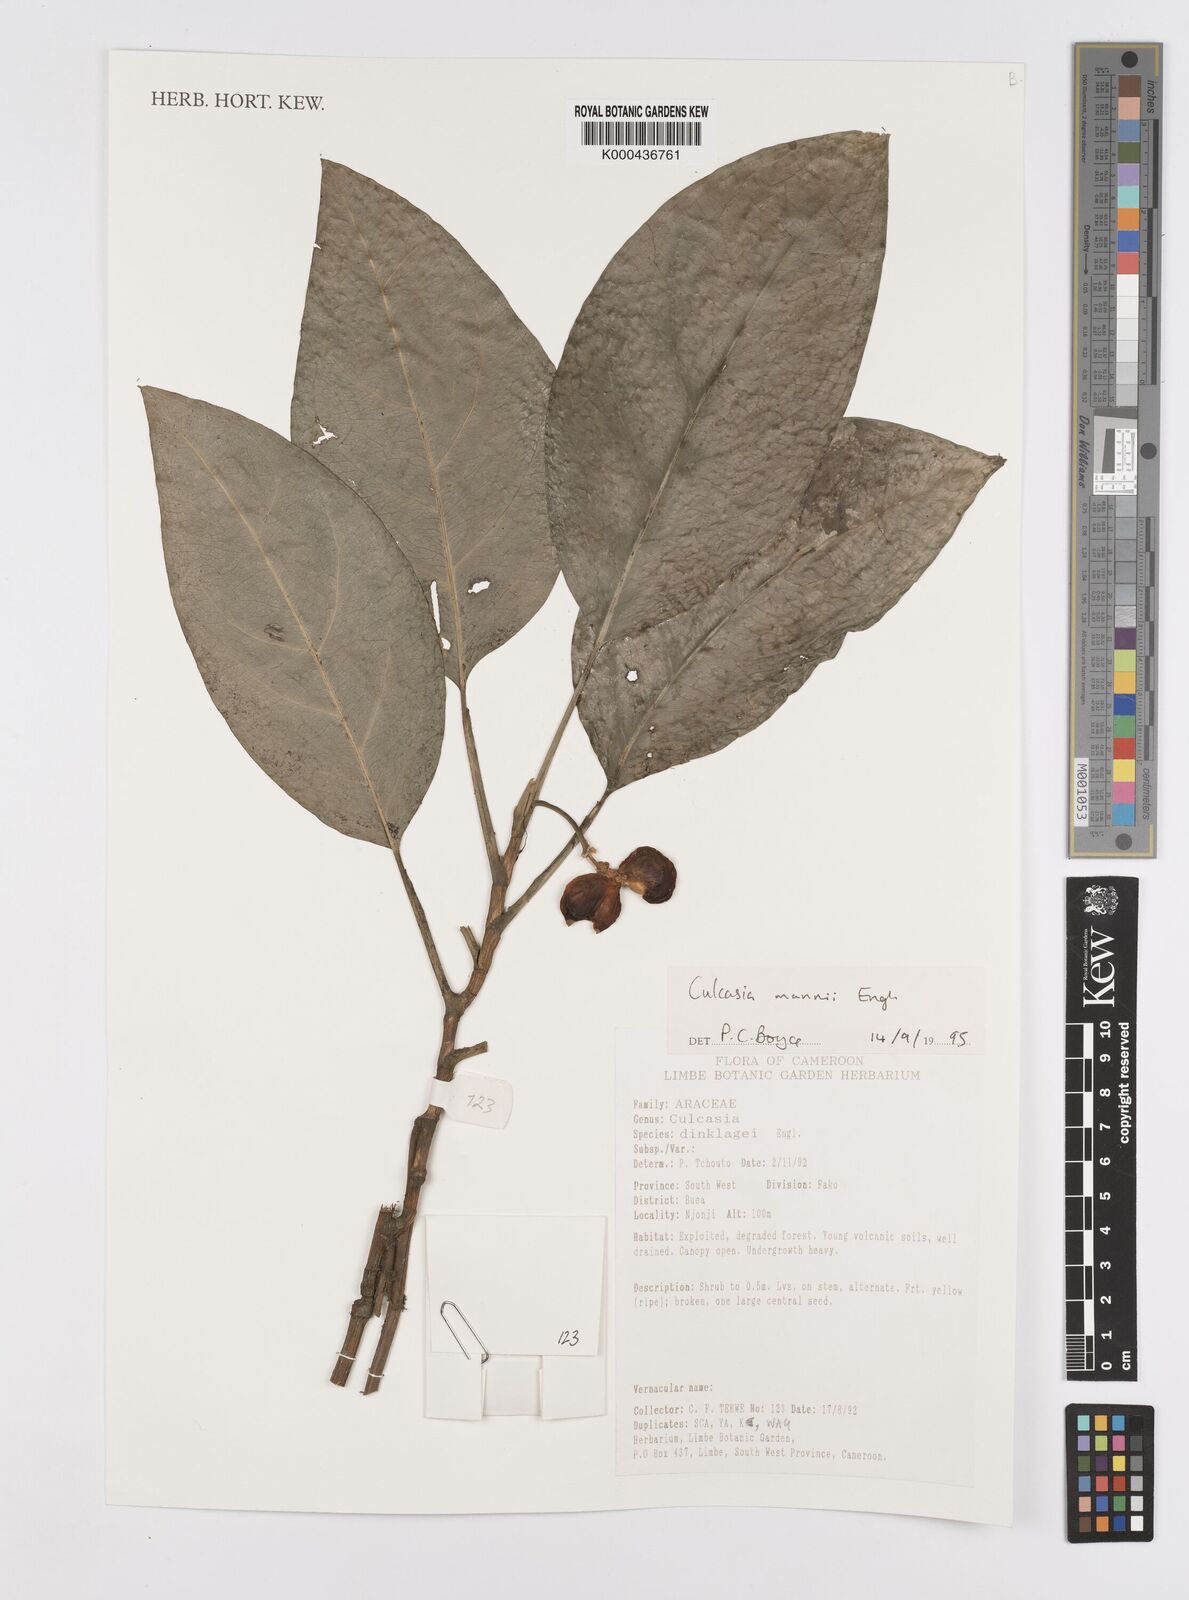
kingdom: Plantae
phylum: Tracheophyta
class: Liliopsida
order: Alismatales
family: Araceae
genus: Culcasia
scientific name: Culcasia mannii
